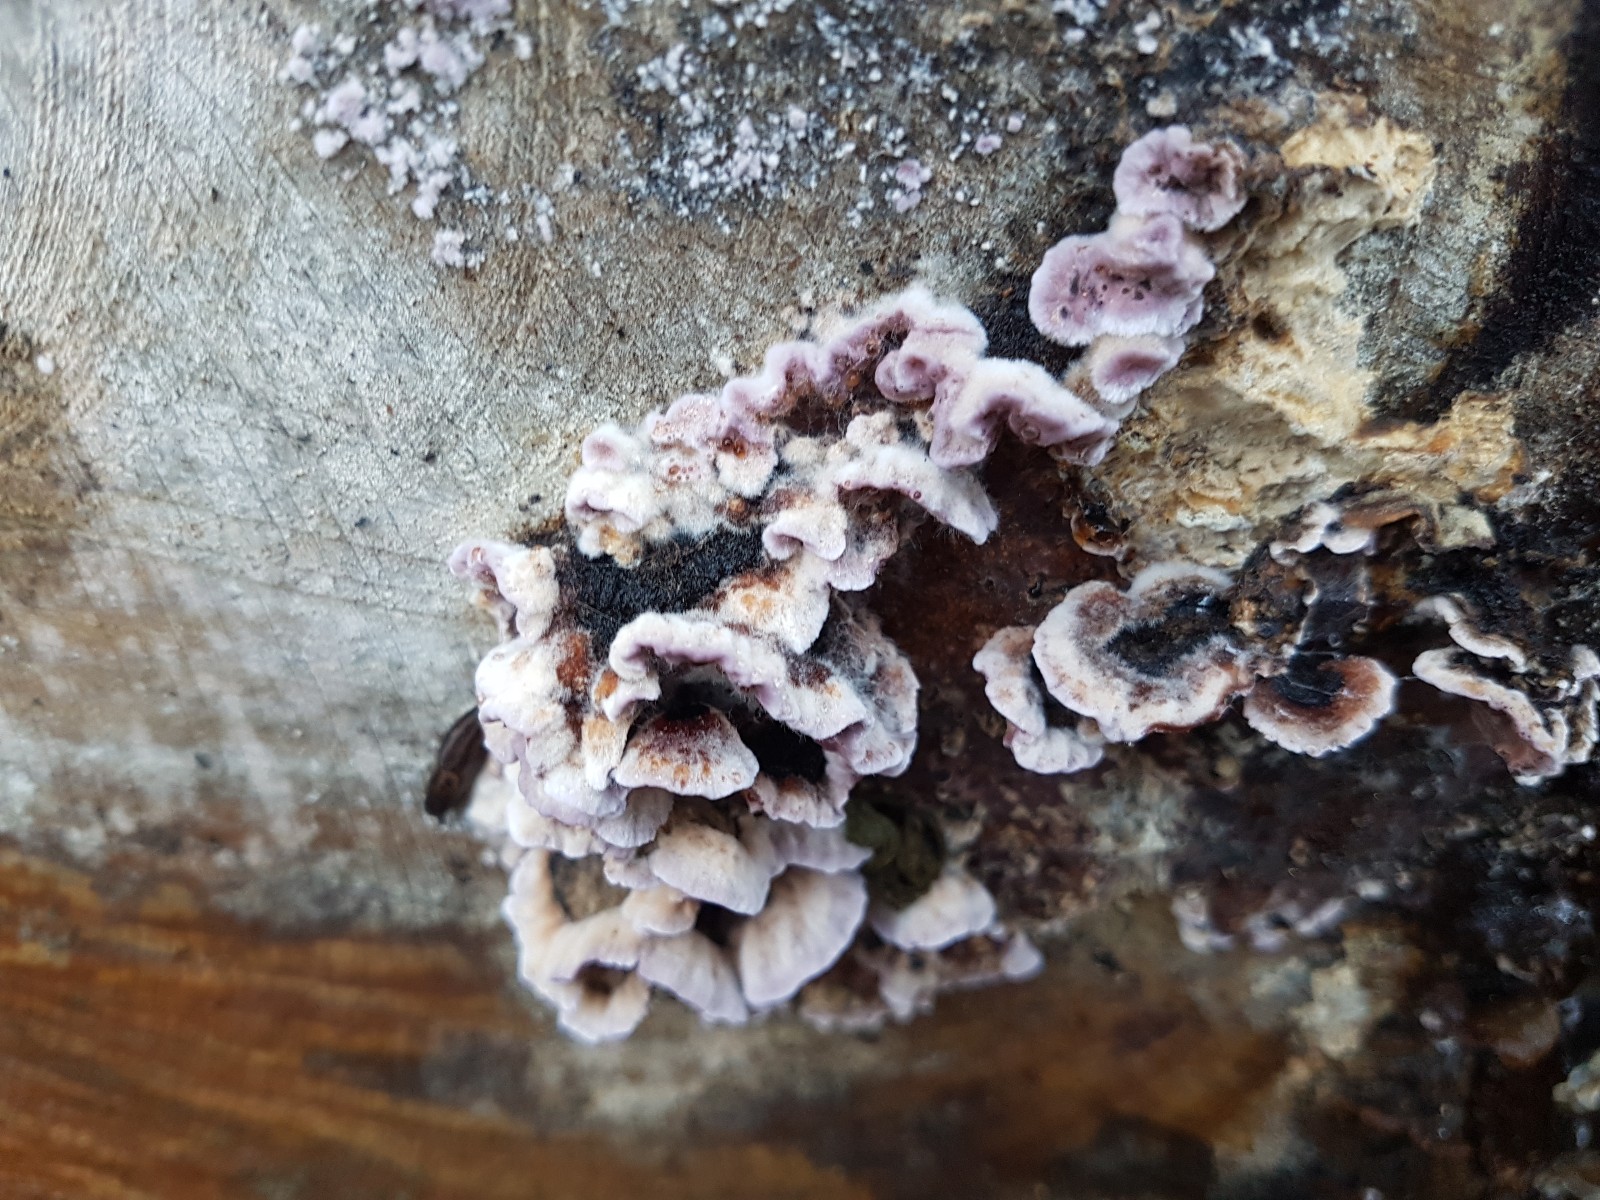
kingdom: Fungi
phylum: Basidiomycota
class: Agaricomycetes
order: Agaricales
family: Cyphellaceae
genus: Chondrostereum
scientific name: Chondrostereum purpureum
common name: purpurlædersvamp
